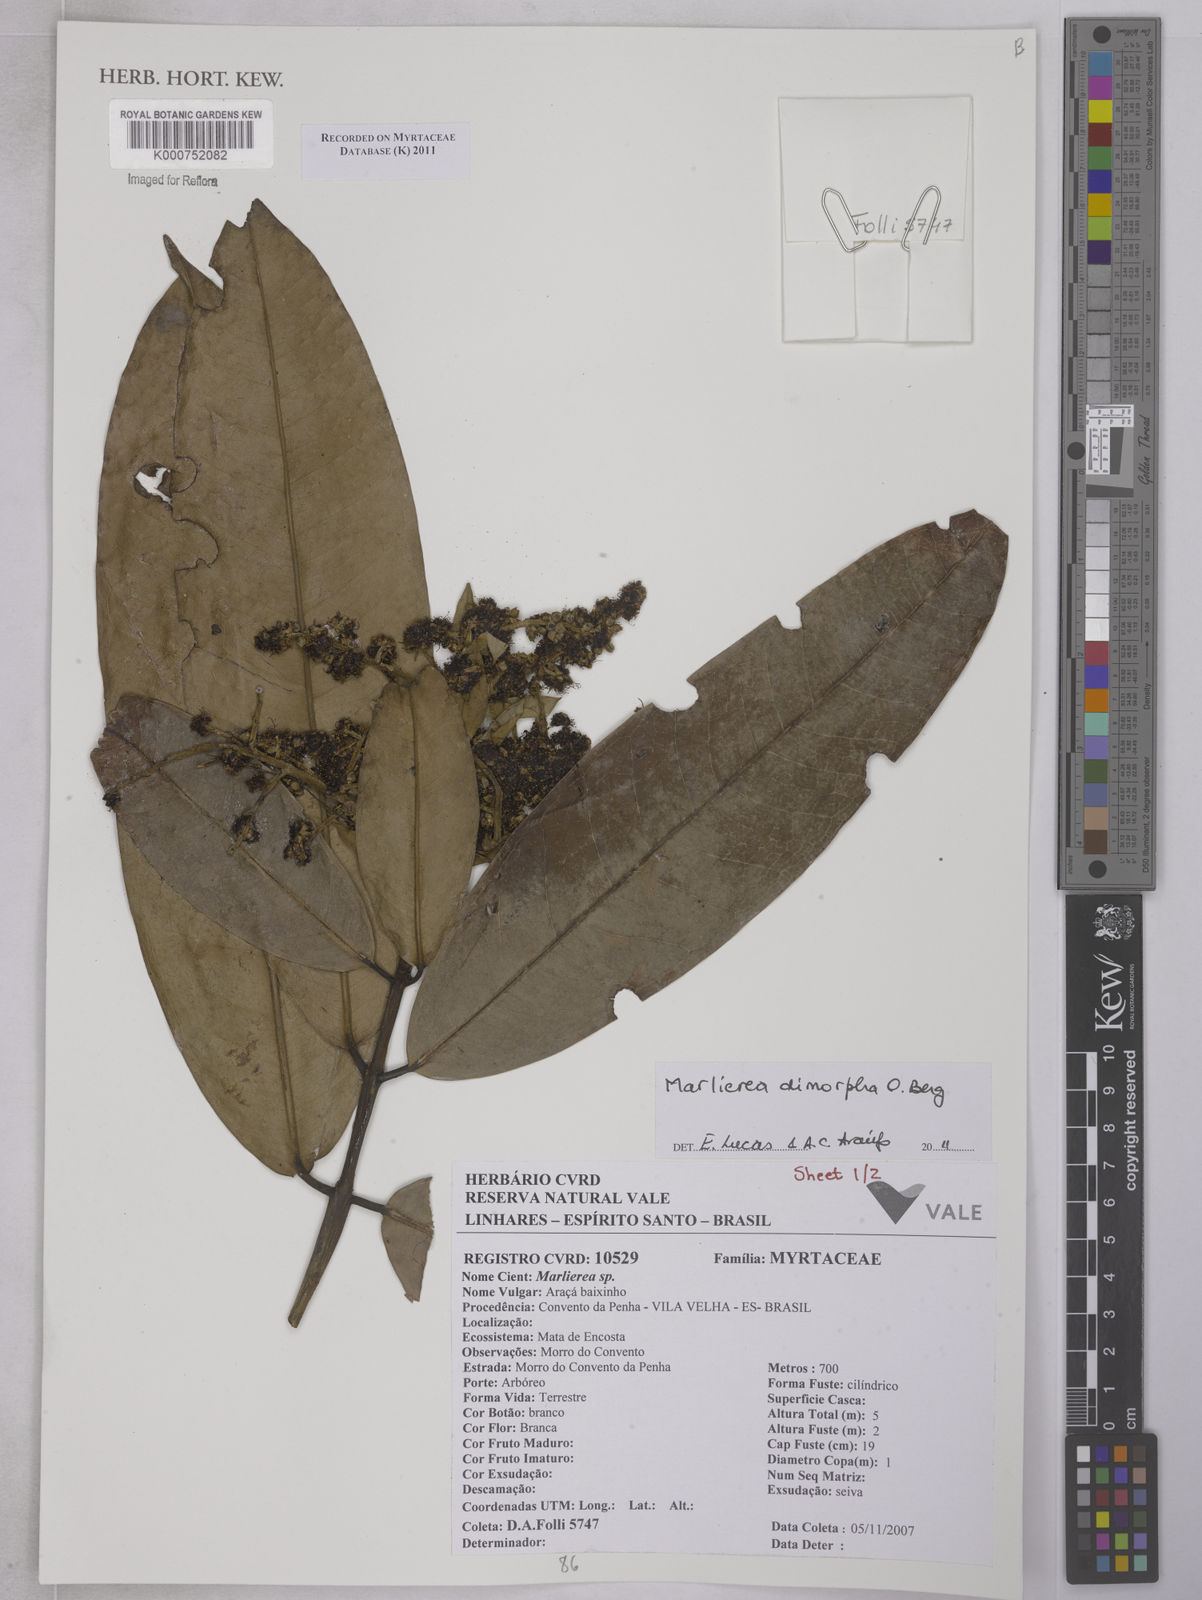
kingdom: Plantae
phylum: Tracheophyta
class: Magnoliopsida
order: Myrtales
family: Myrtaceae
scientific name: Myrtaceae
